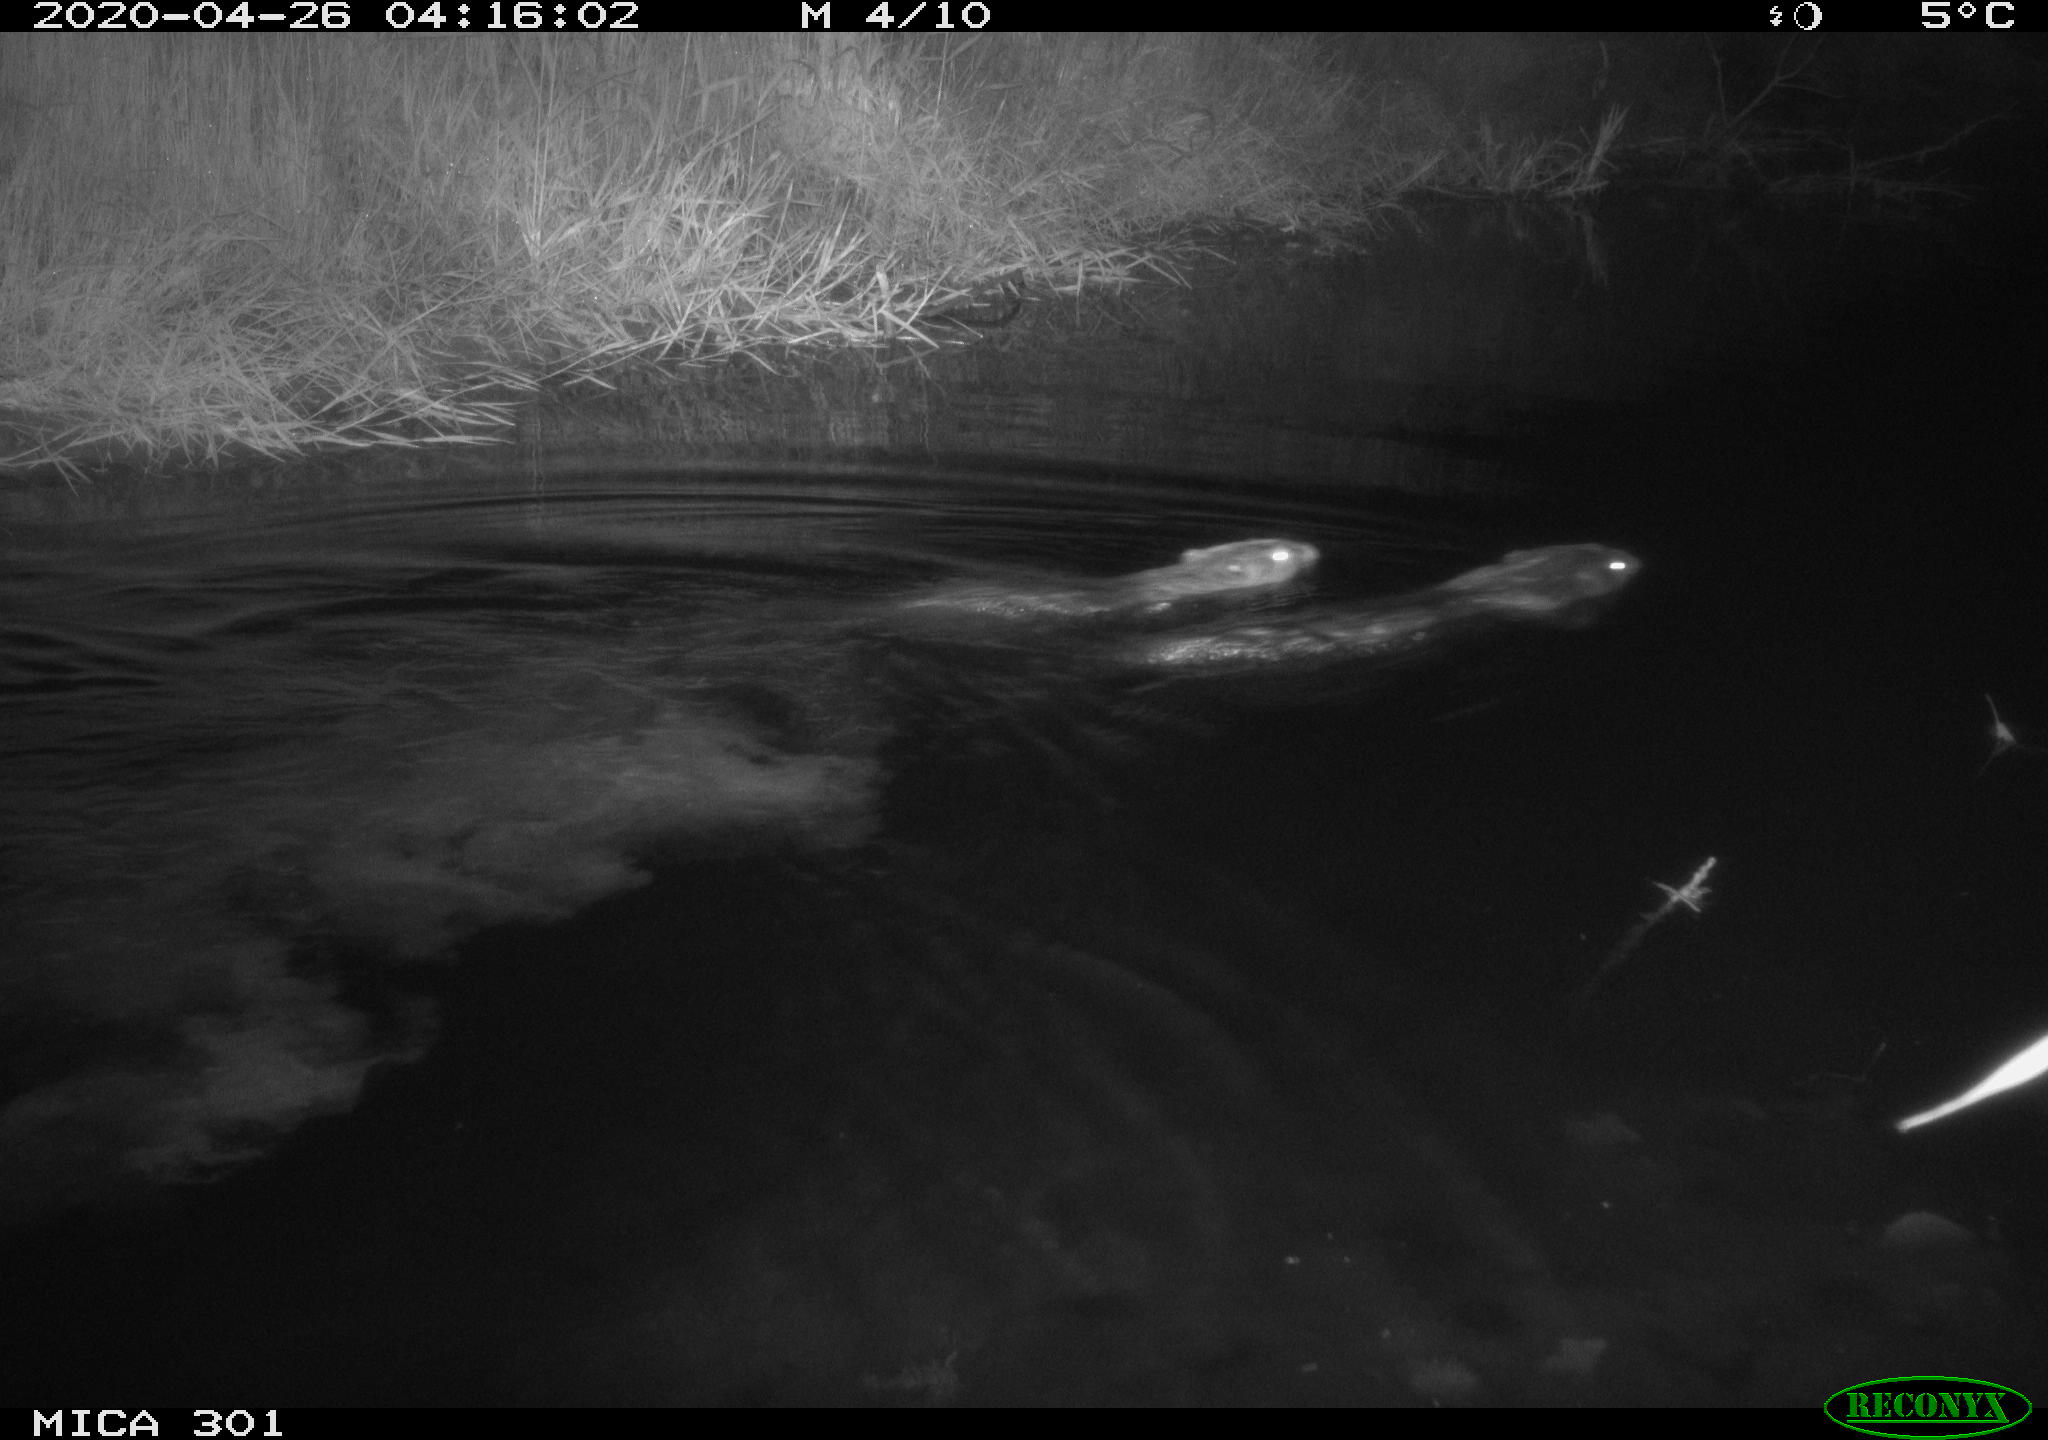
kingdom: Animalia
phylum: Chordata
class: Aves
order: Anseriformes
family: Anatidae
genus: Mareca
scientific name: Mareca strepera
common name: Gadwall
